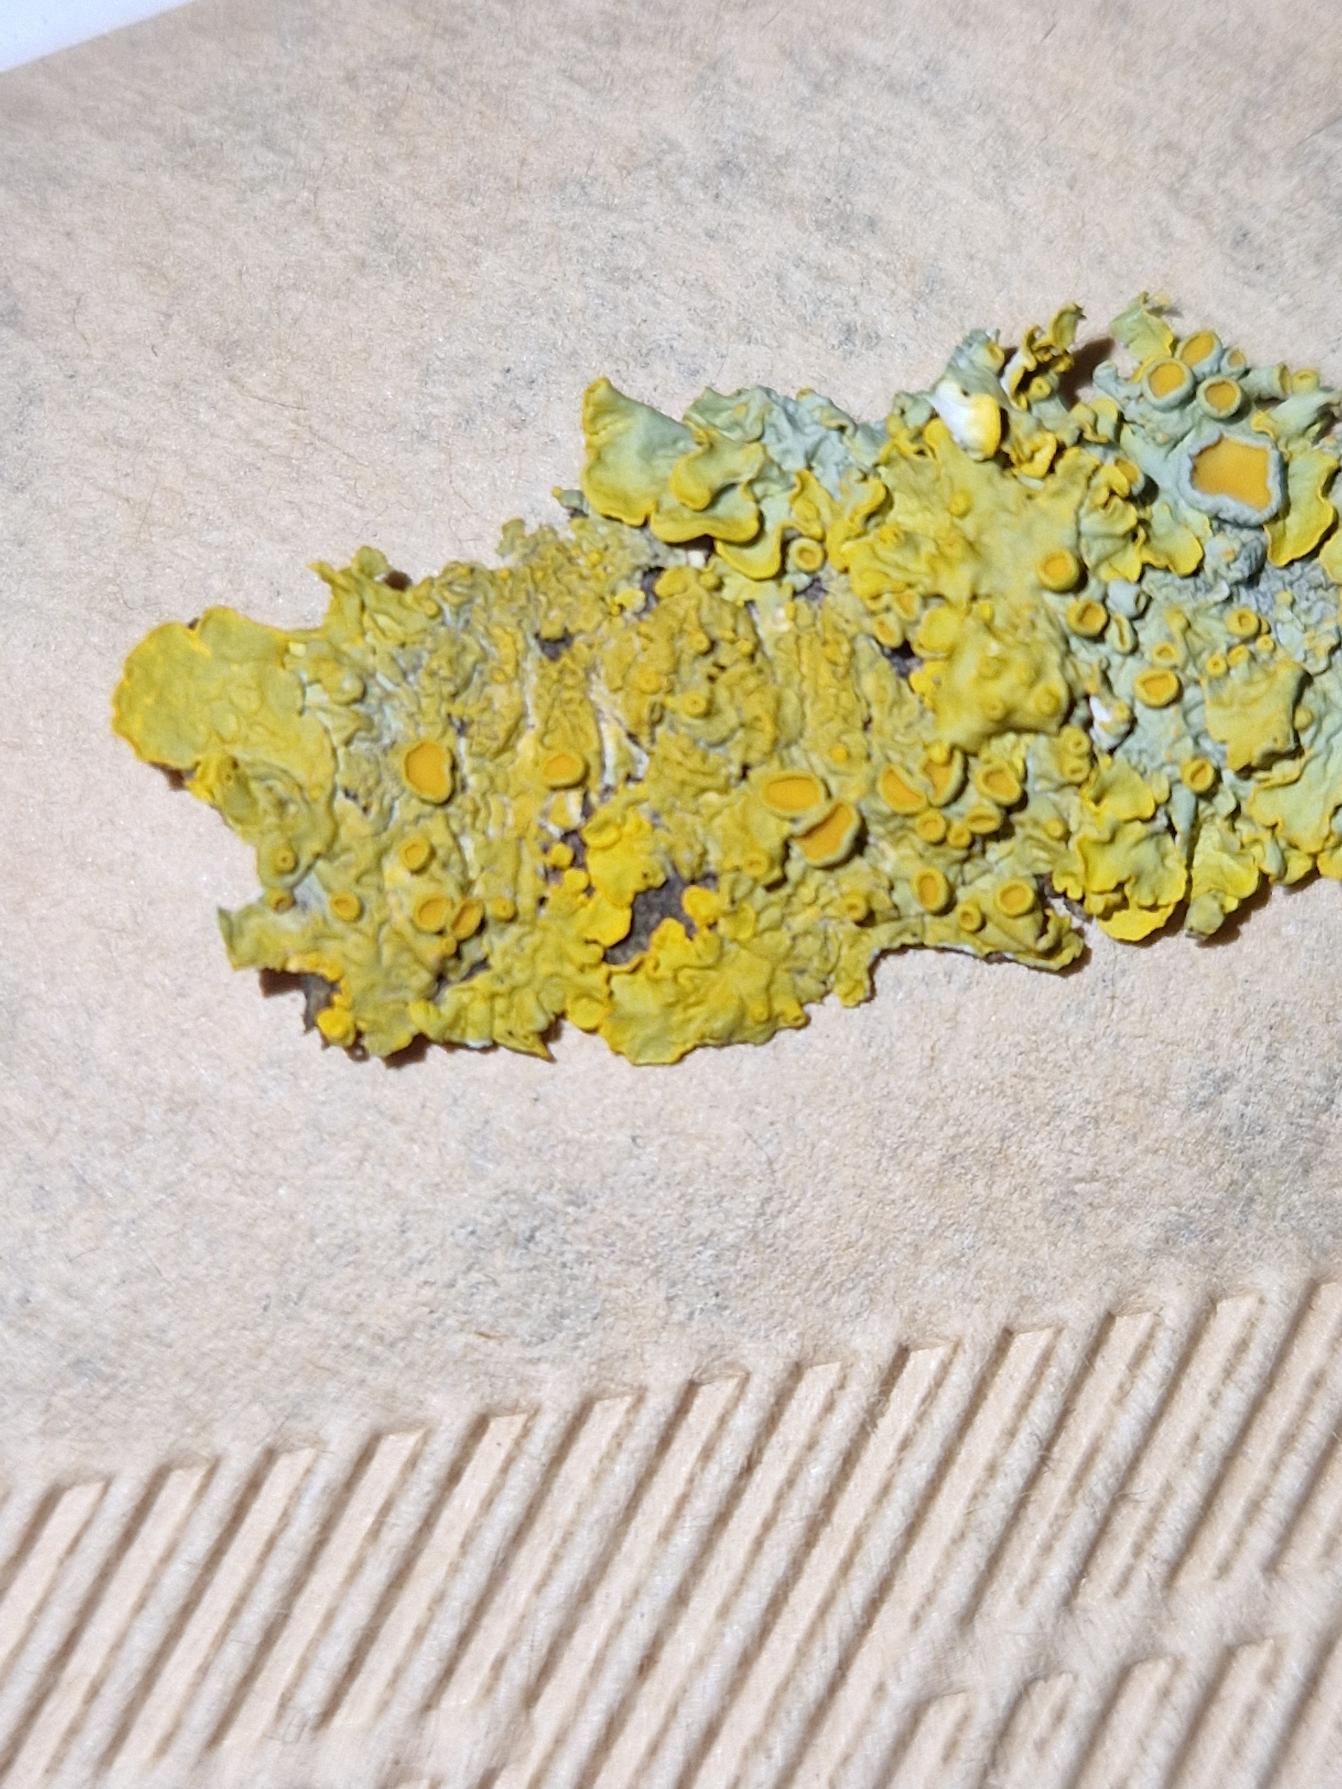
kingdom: Fungi
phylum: Ascomycota
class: Lecanoromycetes
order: Teloschistales
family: Teloschistaceae
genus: Xanthoria
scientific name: Xanthoria parietina
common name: Almindelig væggelav
